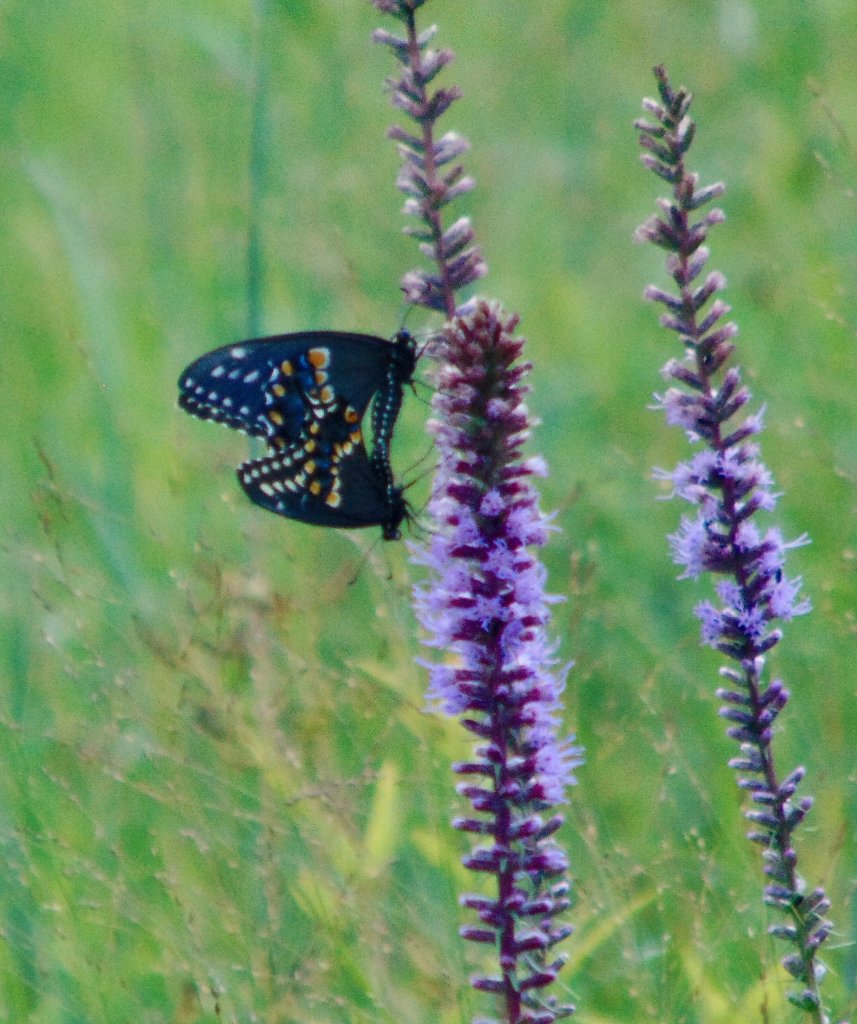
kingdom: Animalia
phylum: Arthropoda
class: Insecta
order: Lepidoptera
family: Papilionidae
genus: Papilio
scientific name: Papilio polyxenes
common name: Black Swallowtail
